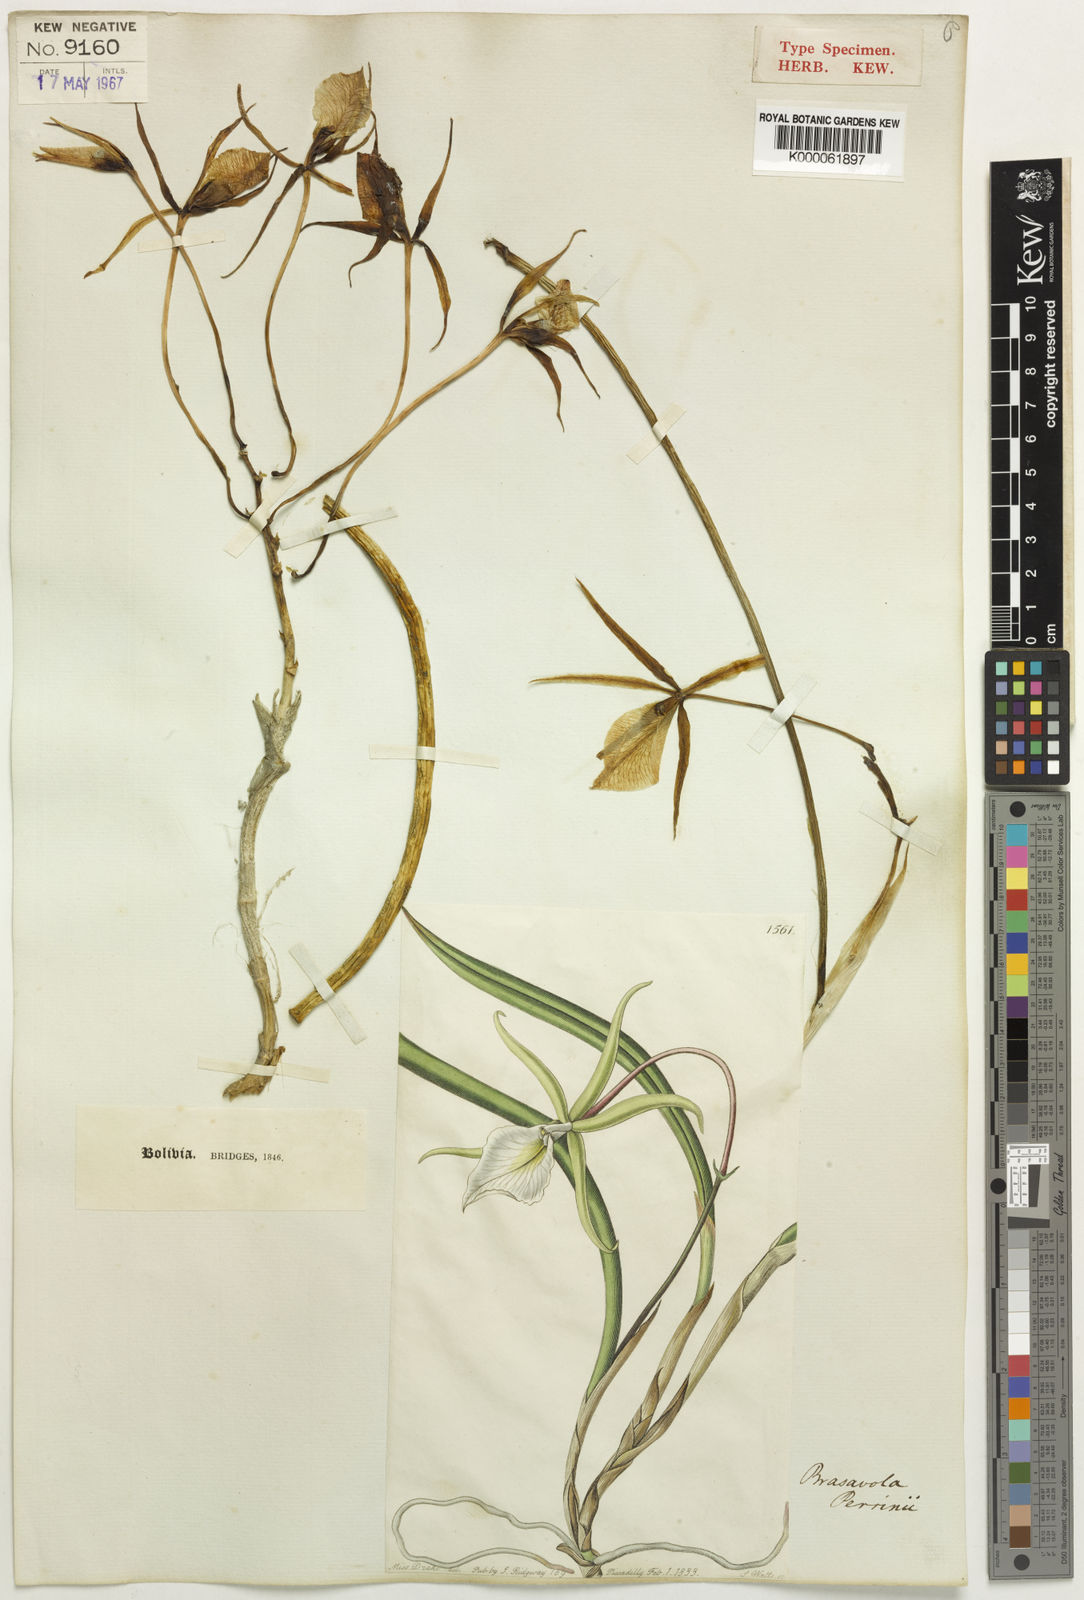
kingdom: Plantae
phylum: Tracheophyta
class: Liliopsida
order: Asparagales
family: Orchidaceae
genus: Brassavola
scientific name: Brassavola tuberculata
